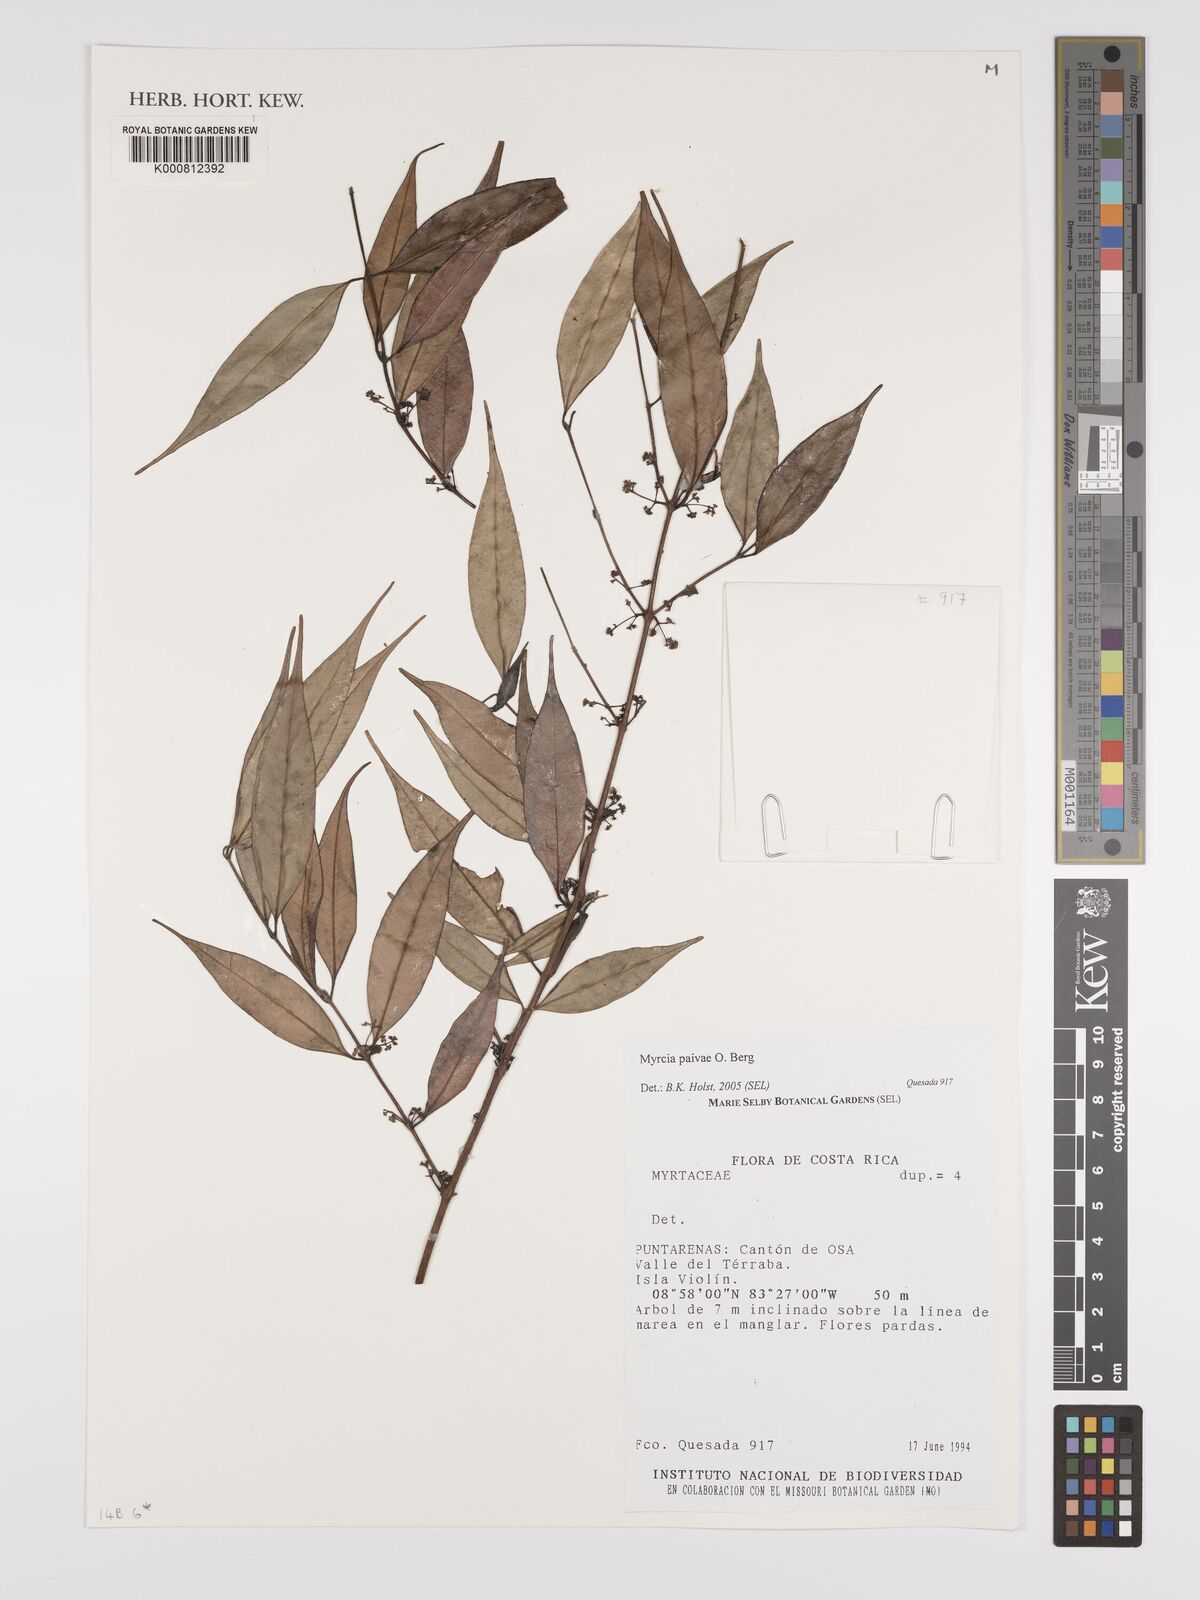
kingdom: Plantae
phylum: Tracheophyta
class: Magnoliopsida
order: Myrtales
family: Myrtaceae
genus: Myrcia
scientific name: Myrcia paivae
